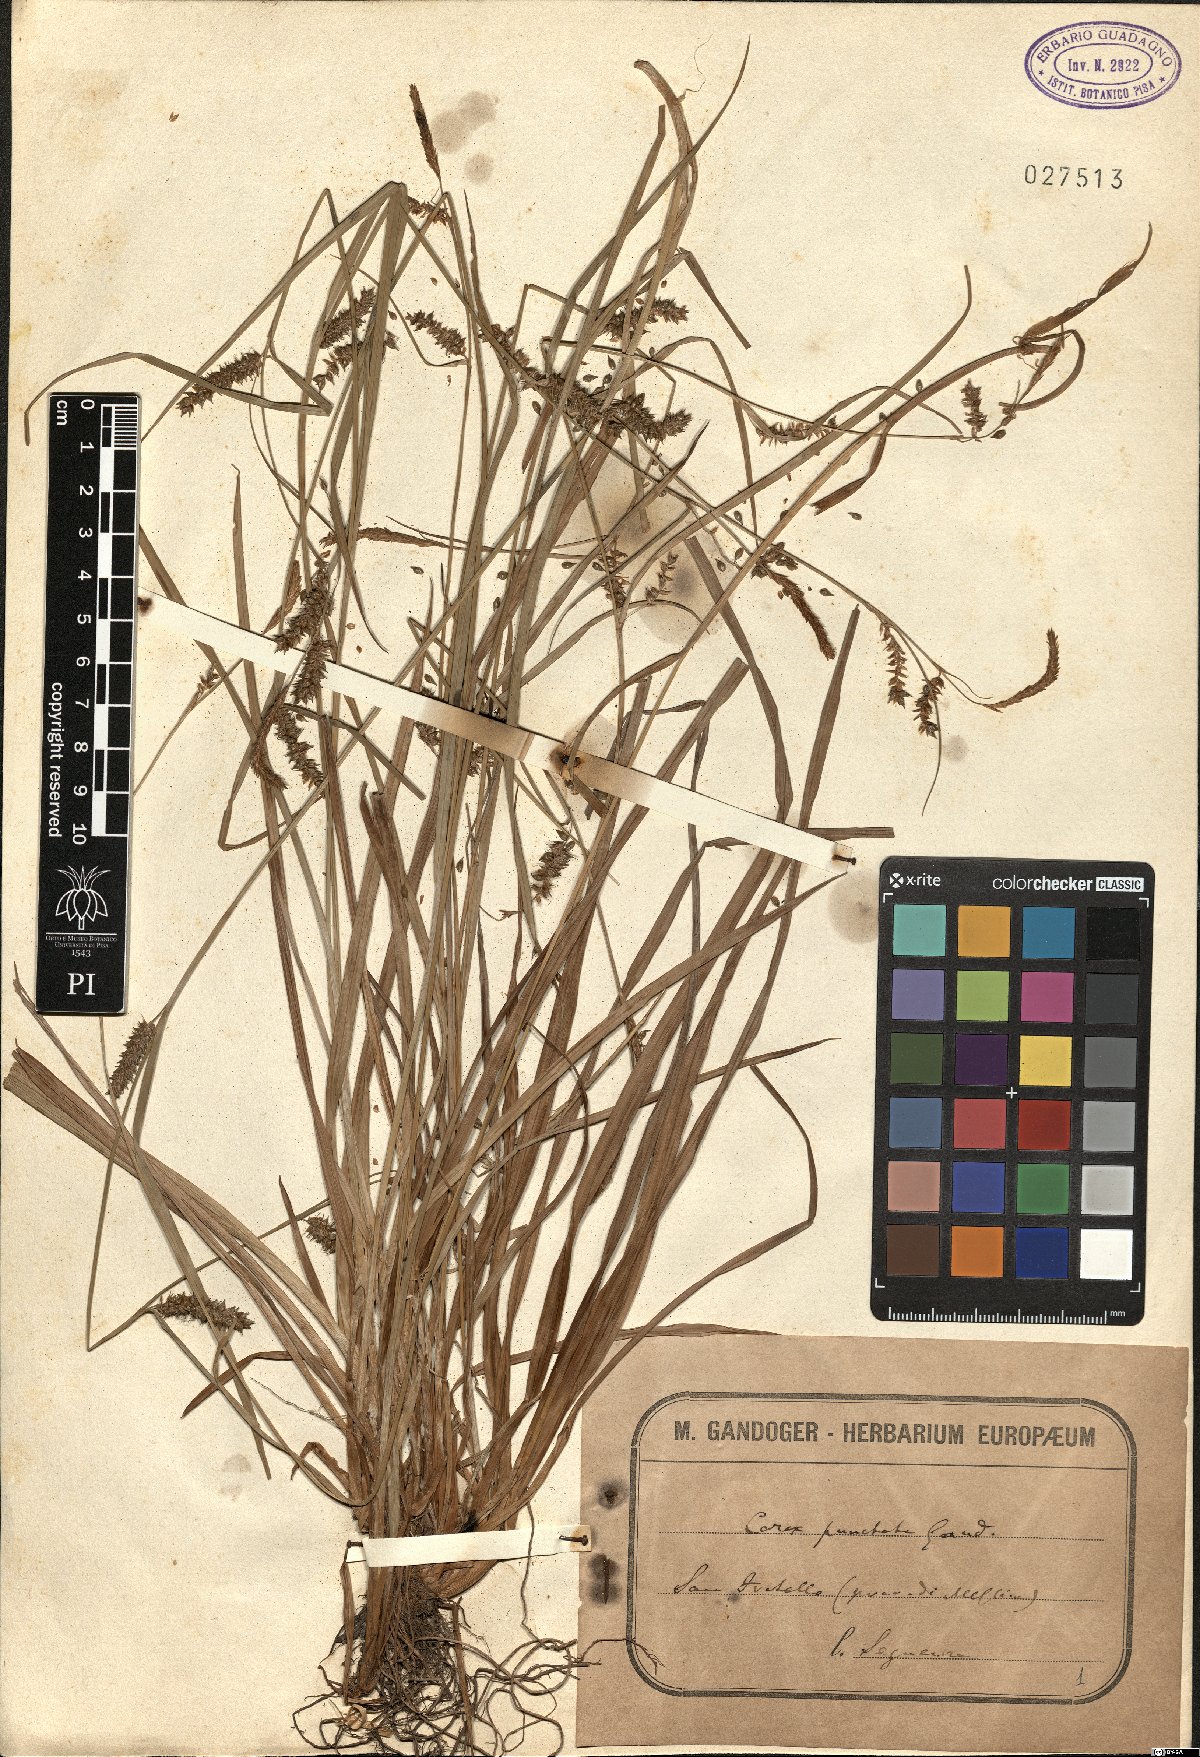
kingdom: Plantae
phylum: Tracheophyta
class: Liliopsida
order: Poales
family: Cyperaceae
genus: Carex
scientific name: Carex punctata
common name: Dotted sedge
